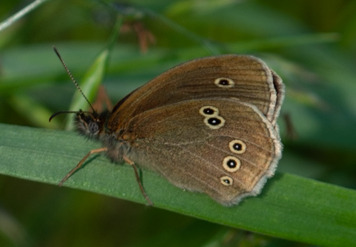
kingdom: Animalia
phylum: Arthropoda
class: Insecta
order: Lepidoptera
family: Nymphalidae
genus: Aphantopus
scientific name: Aphantopus hyperantus
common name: Engrandøje
